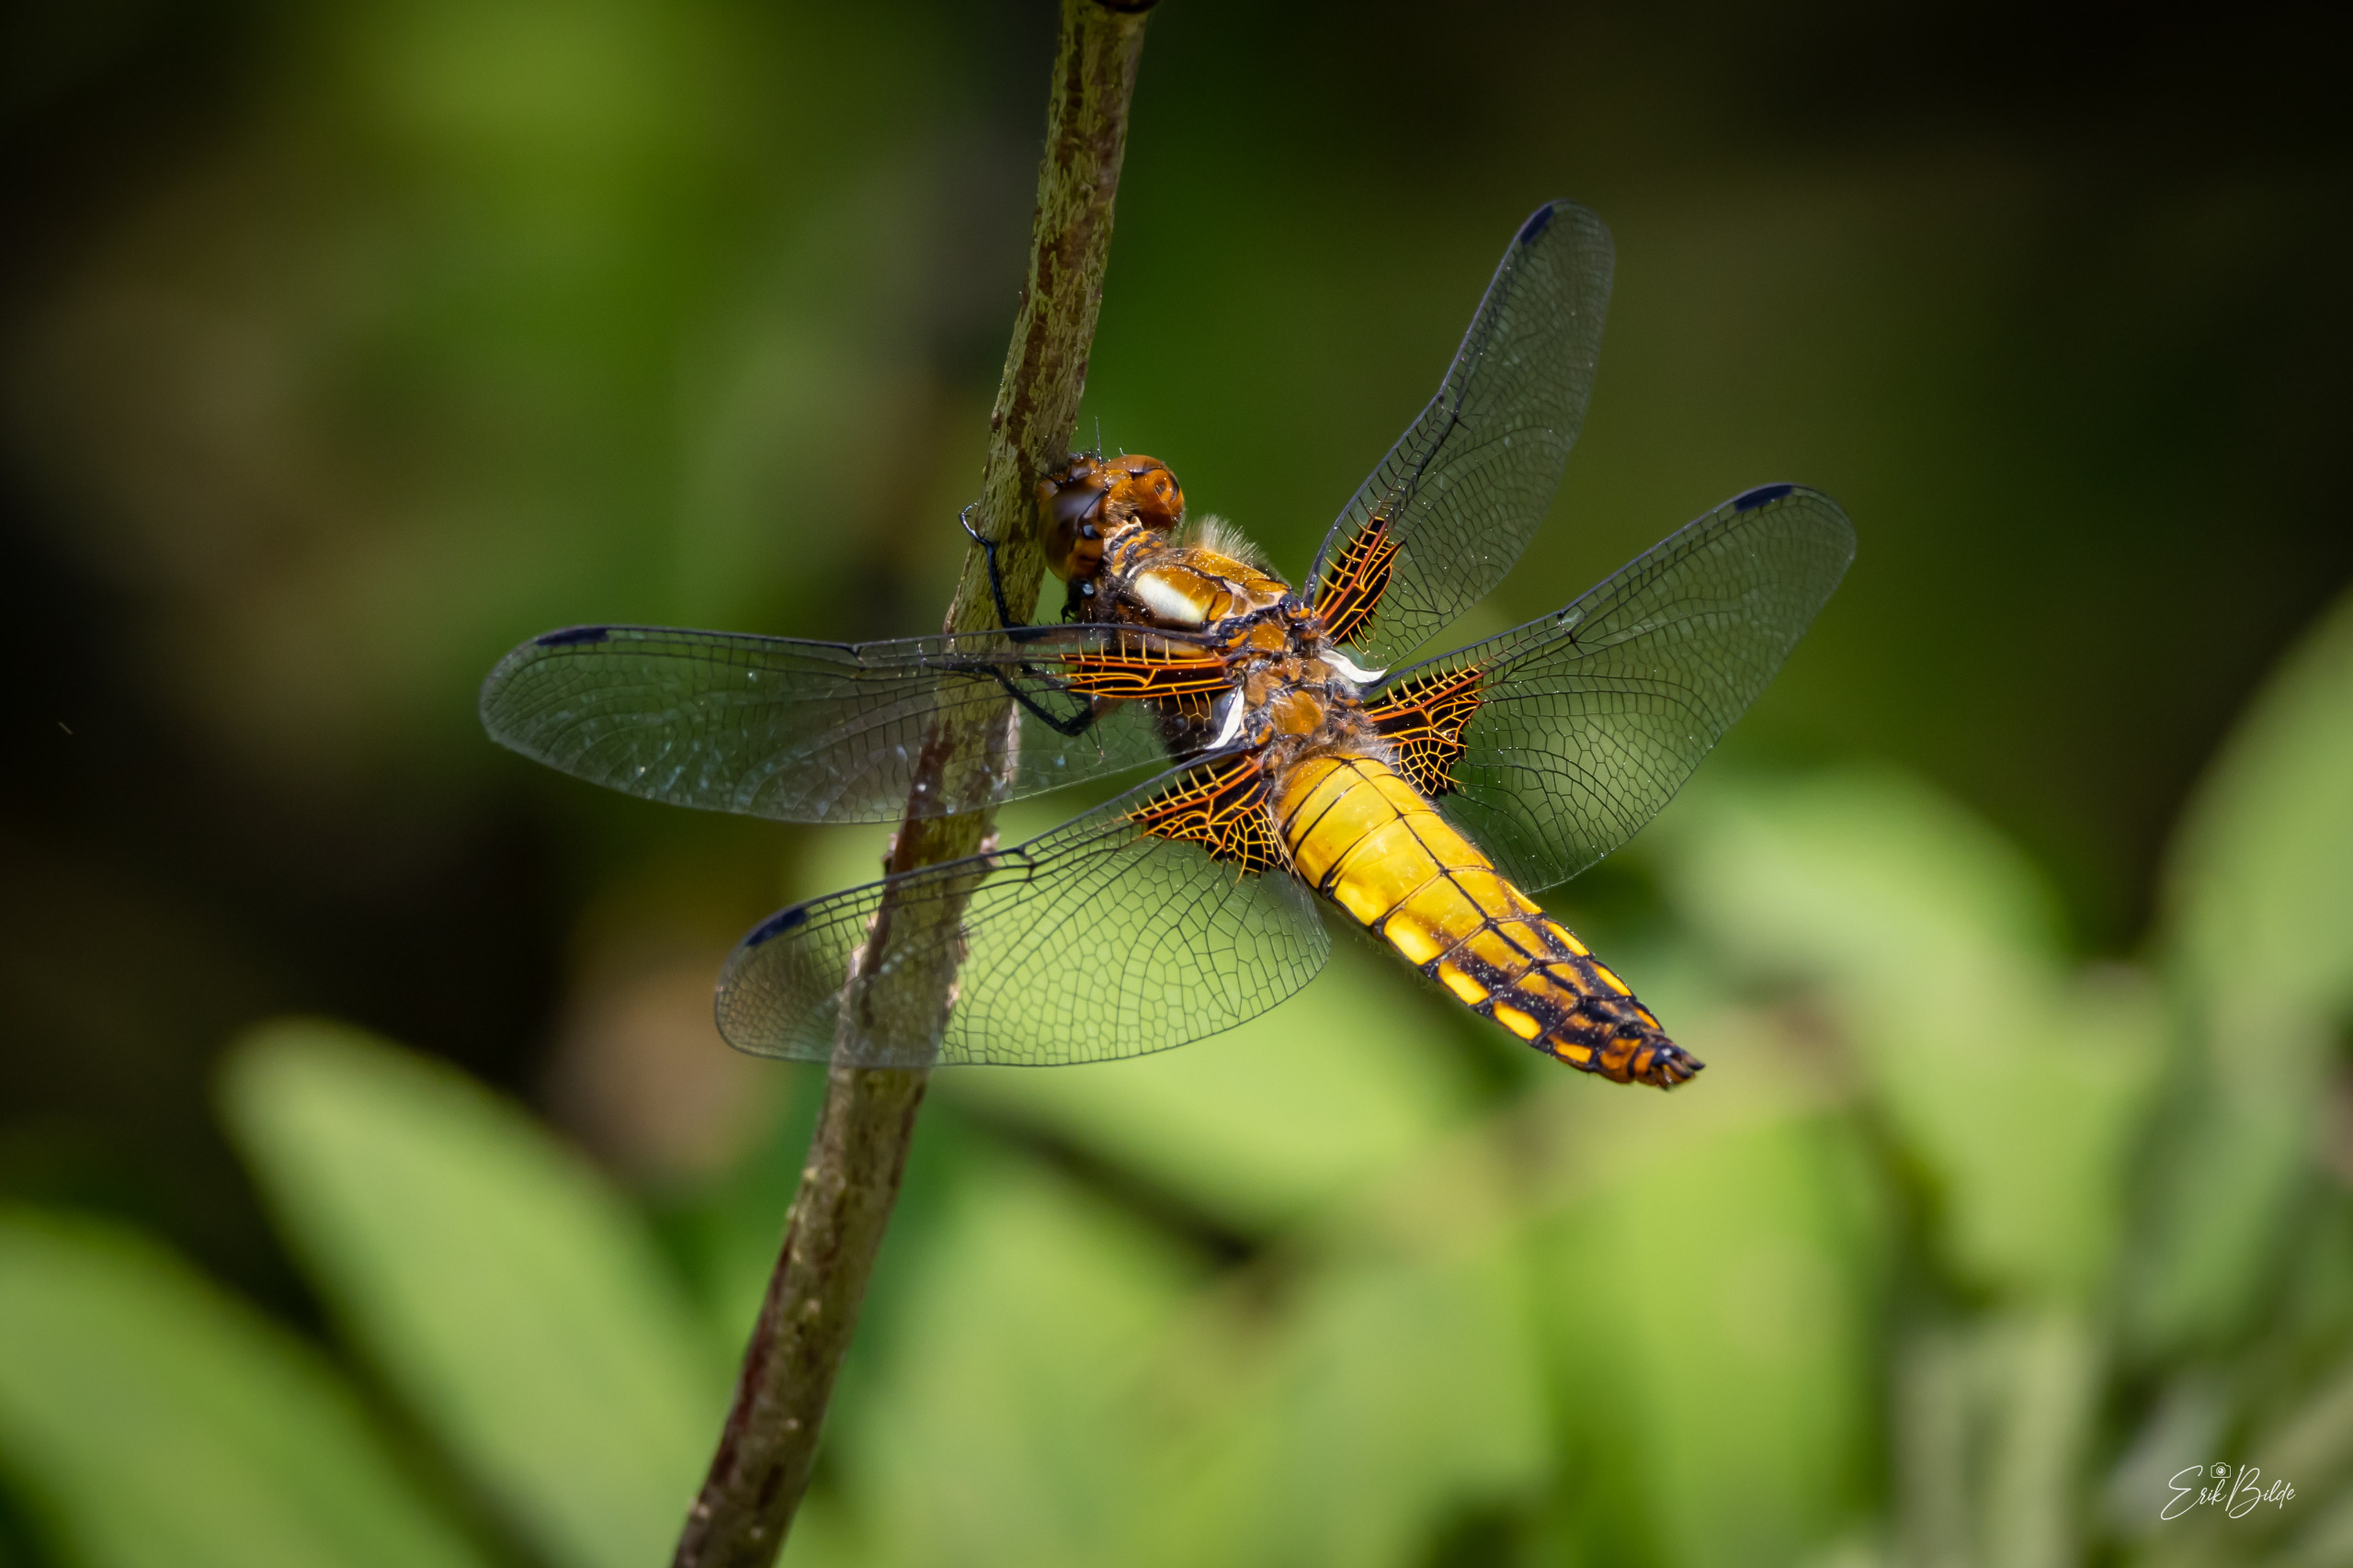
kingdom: Animalia
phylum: Arthropoda
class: Insecta
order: Odonata
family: Libellulidae
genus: Libellula
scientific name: Libellula depressa
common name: Blå libel
